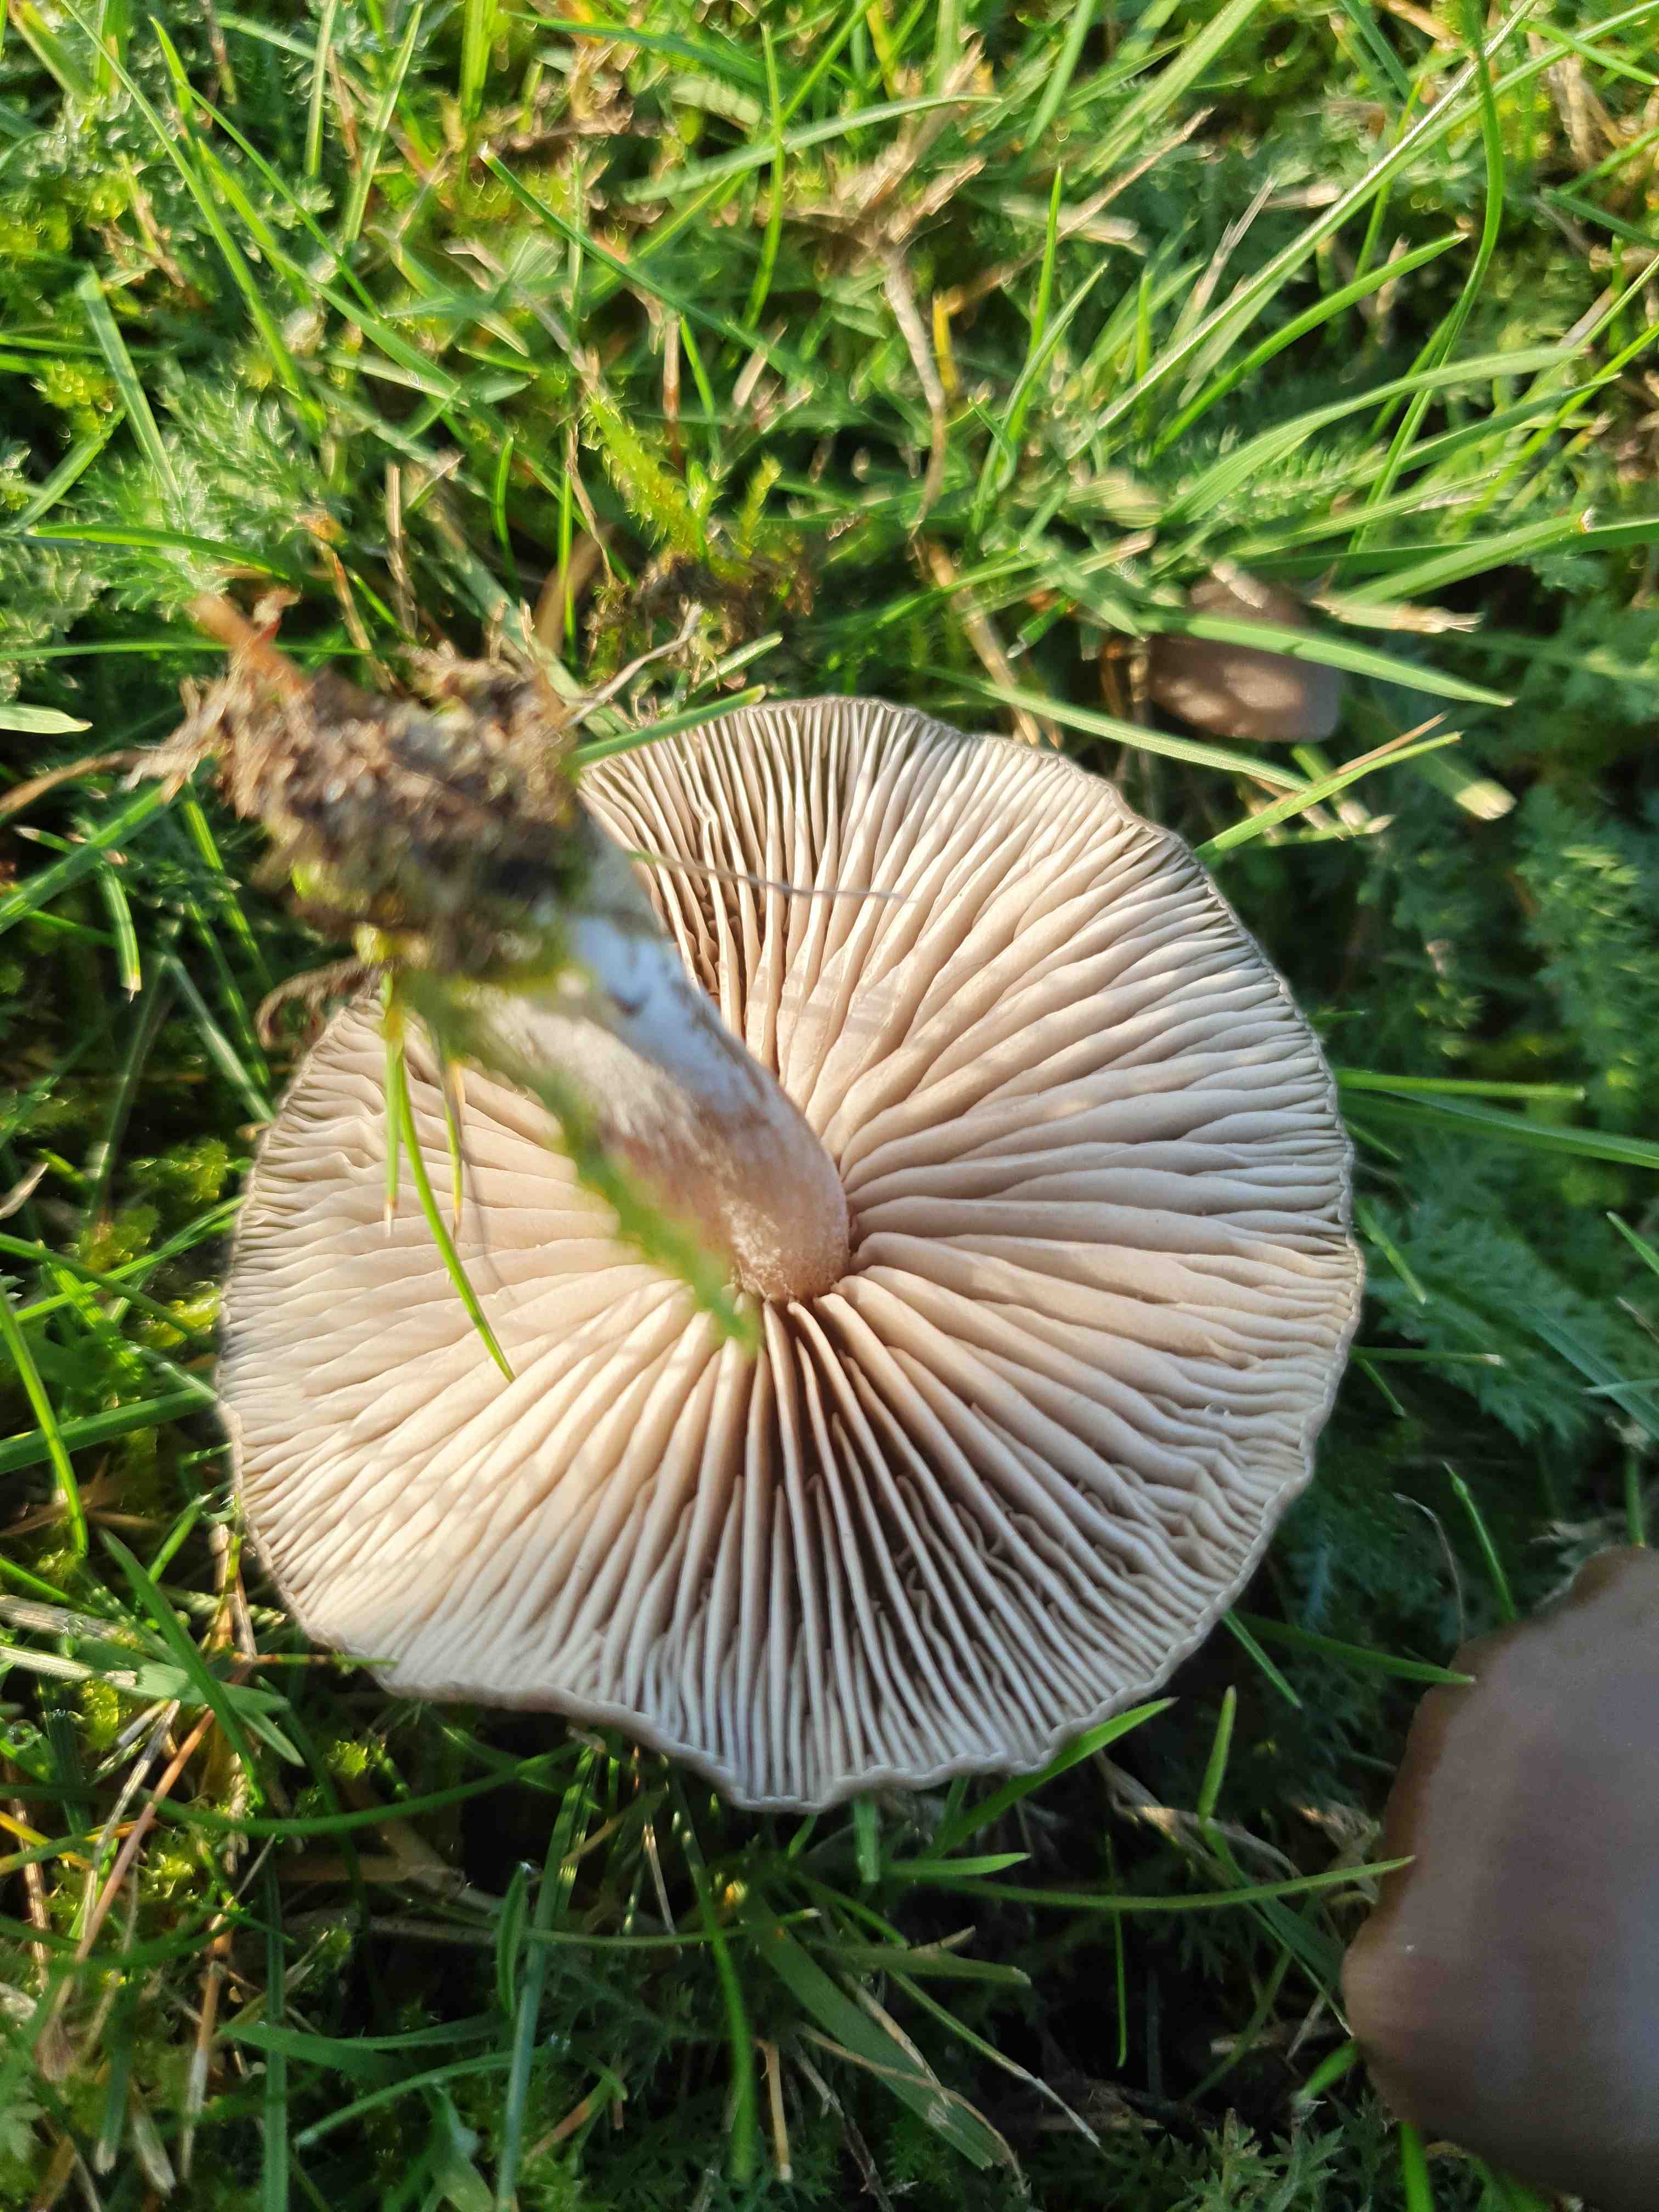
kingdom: Fungi
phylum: Basidiomycota
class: Agaricomycetes
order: Agaricales
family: Entolomataceae
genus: Entoloma
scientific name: Entoloma
